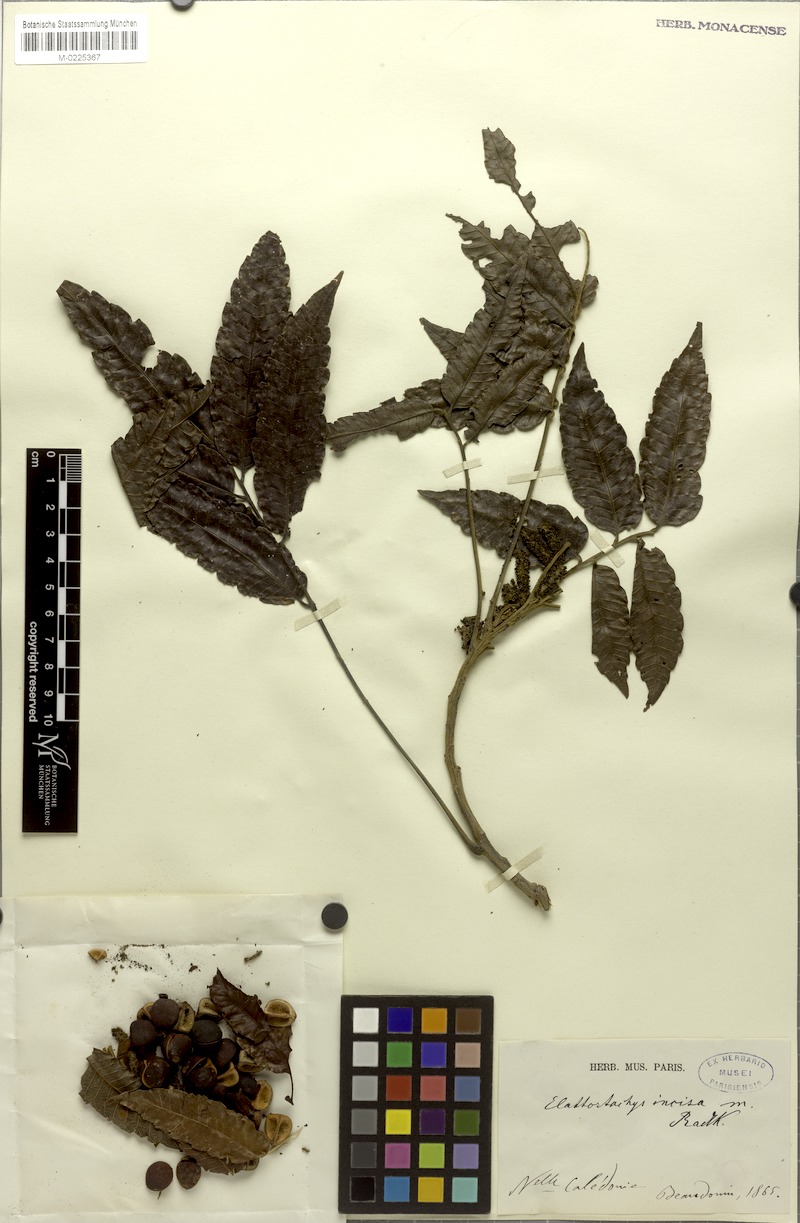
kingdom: Plantae
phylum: Tracheophyta
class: Magnoliopsida
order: Sapindales
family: Sapindaceae
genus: Elattostachys
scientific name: Elattostachys incisa
